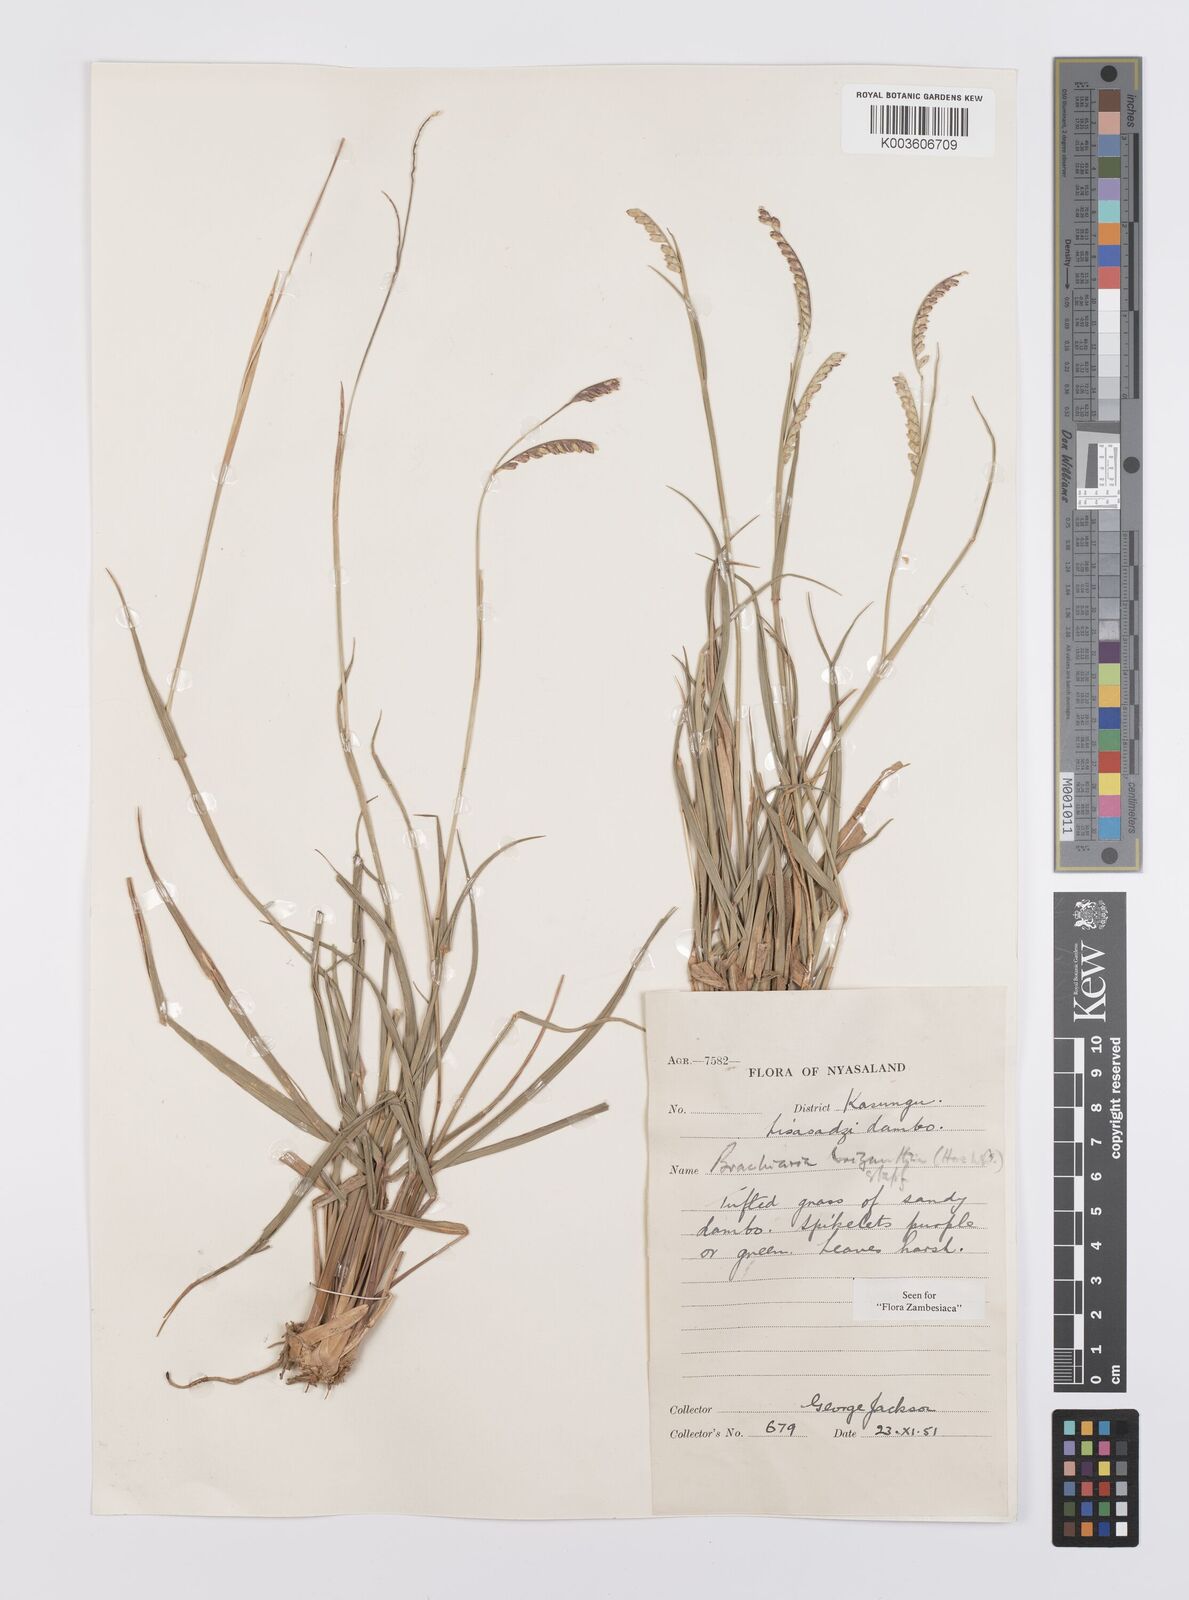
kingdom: Plantae
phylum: Tracheophyta
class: Liliopsida
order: Poales
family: Poaceae
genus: Urochloa
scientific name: Urochloa brizantha
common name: Palisade signalgrass
